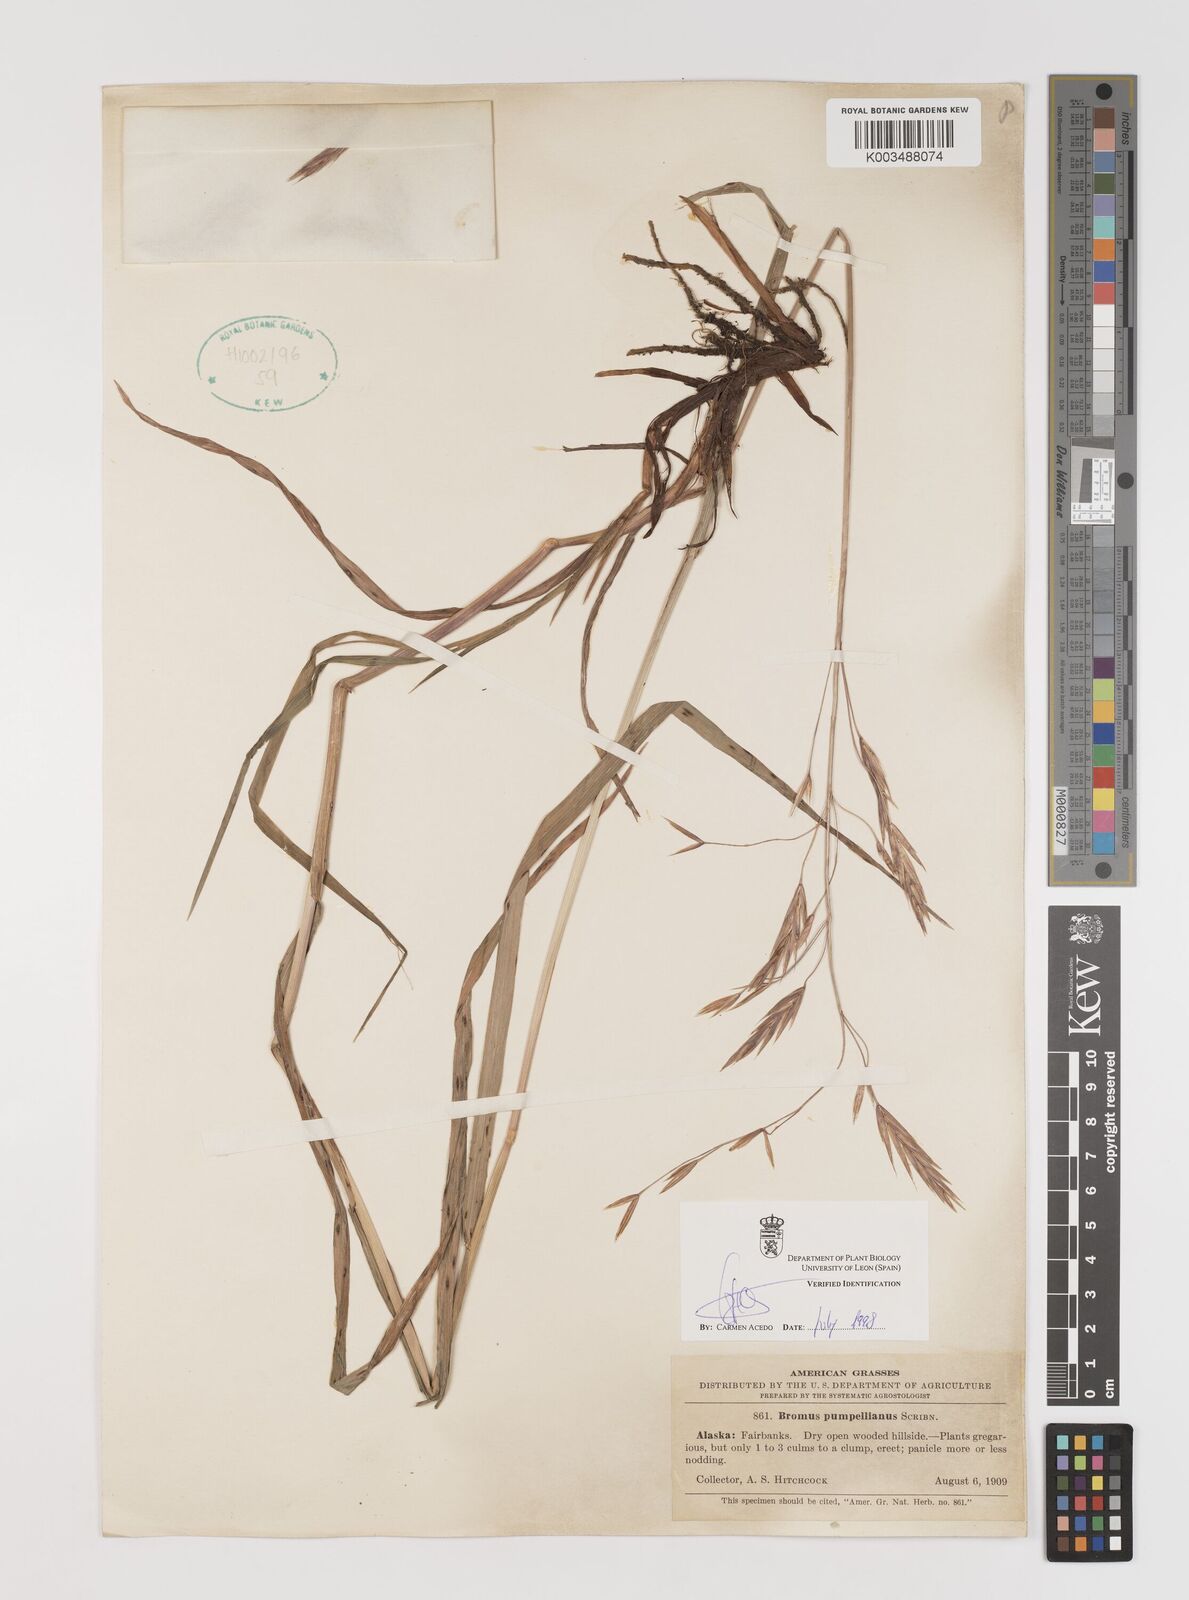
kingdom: Plantae
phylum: Tracheophyta
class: Liliopsida
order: Poales
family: Poaceae
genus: Bromus
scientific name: Bromus pumpellianus
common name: Pumpelly's brome
